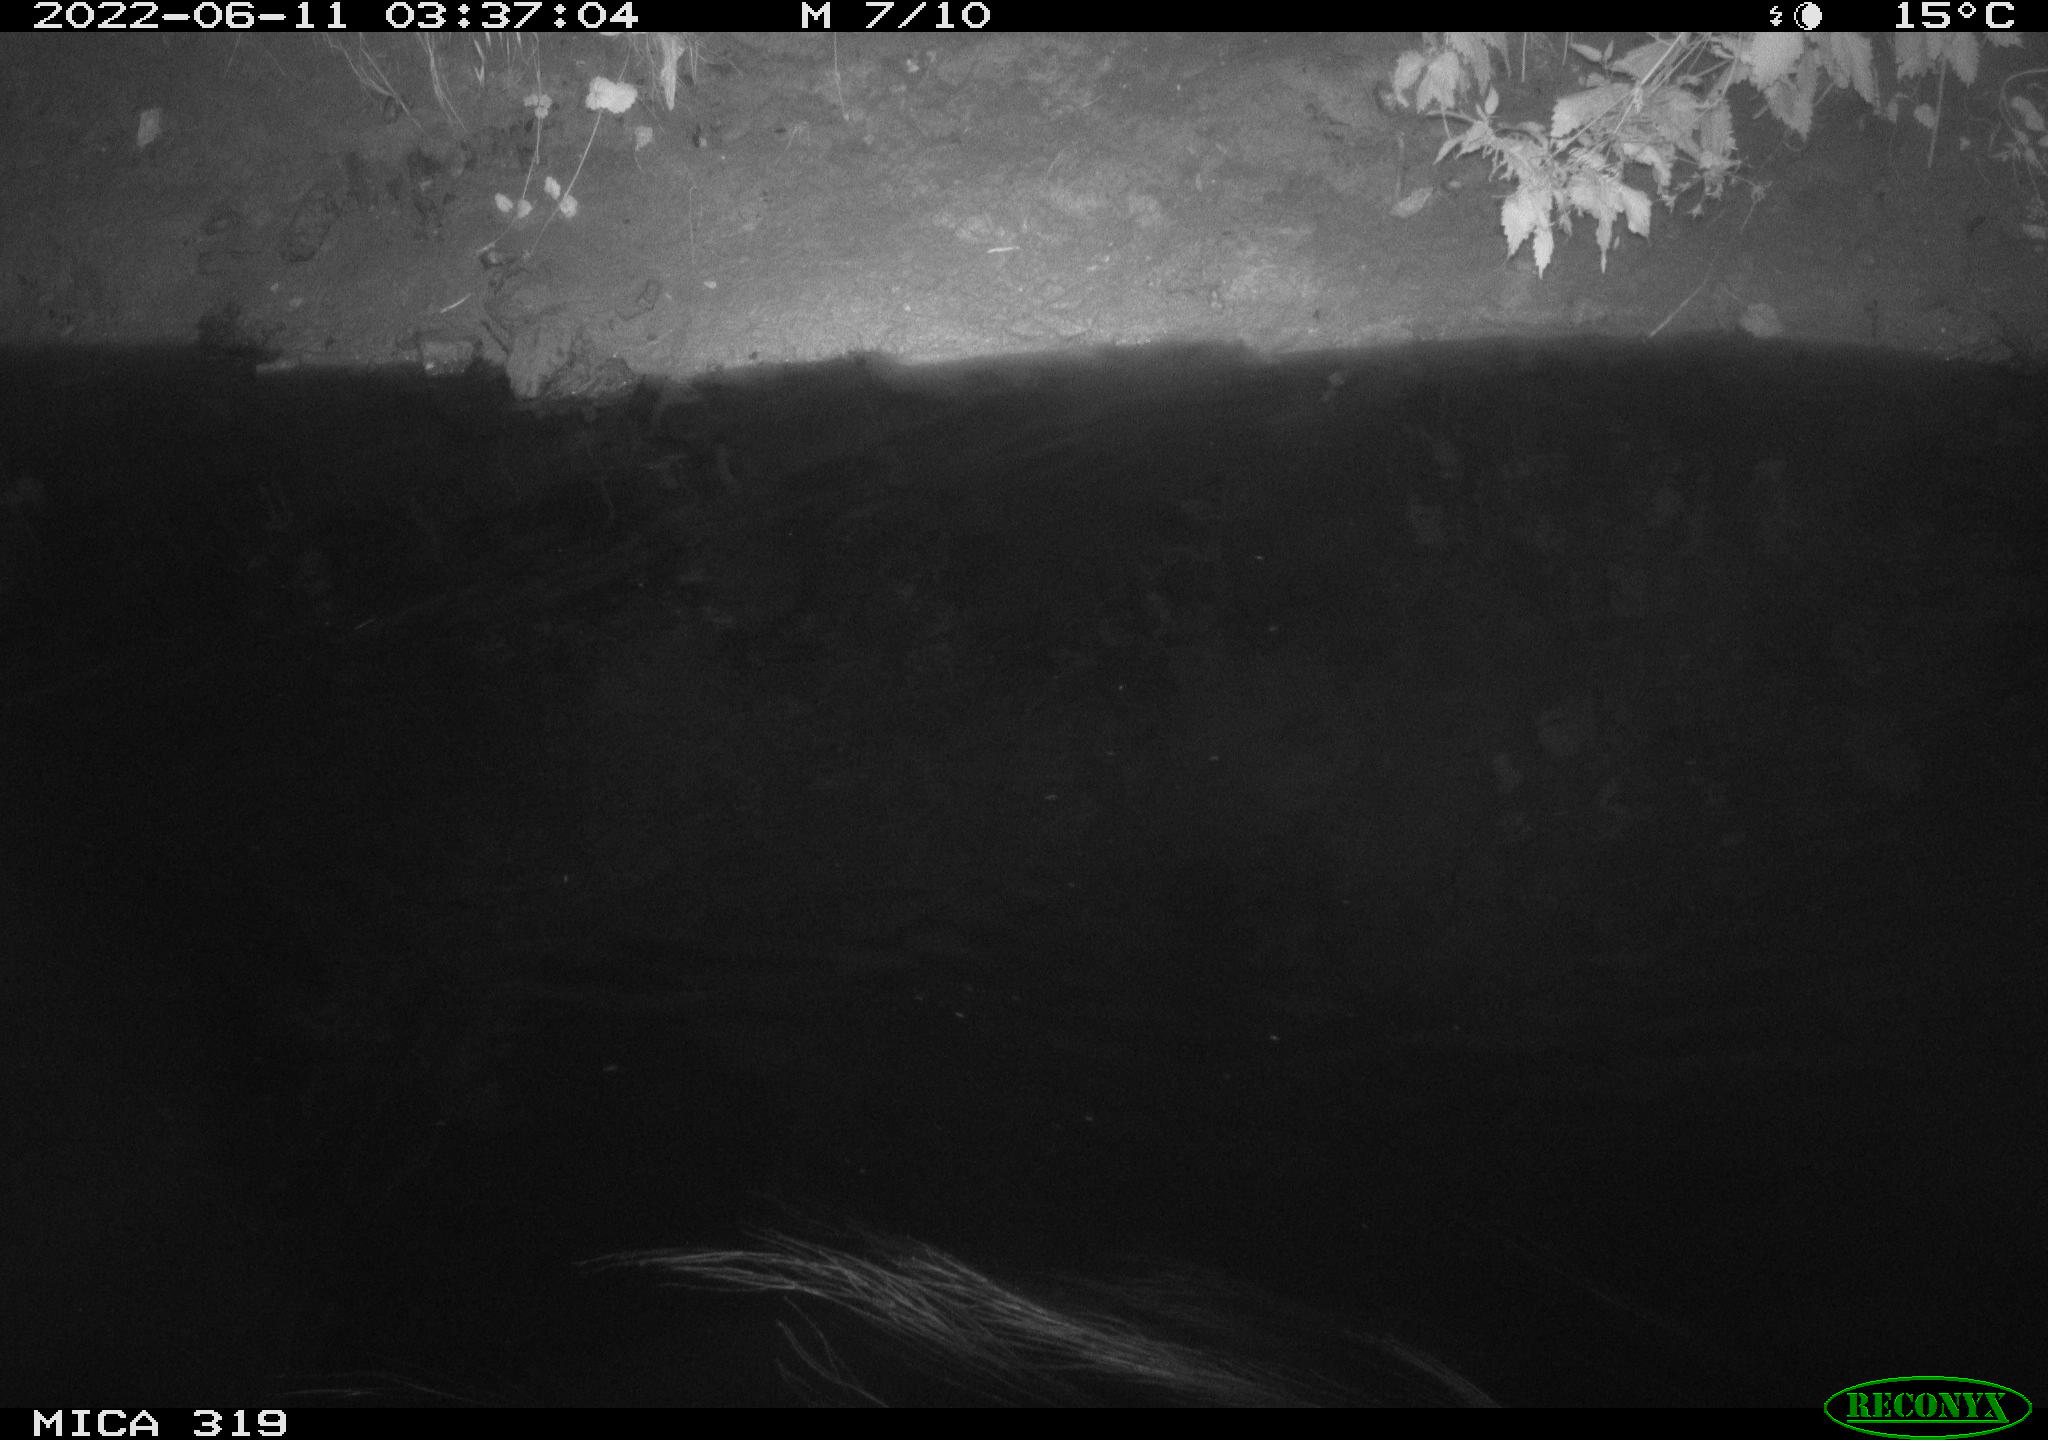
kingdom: Animalia
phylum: Chordata
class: Aves
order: Anseriformes
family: Anatidae
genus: Anas
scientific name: Anas
